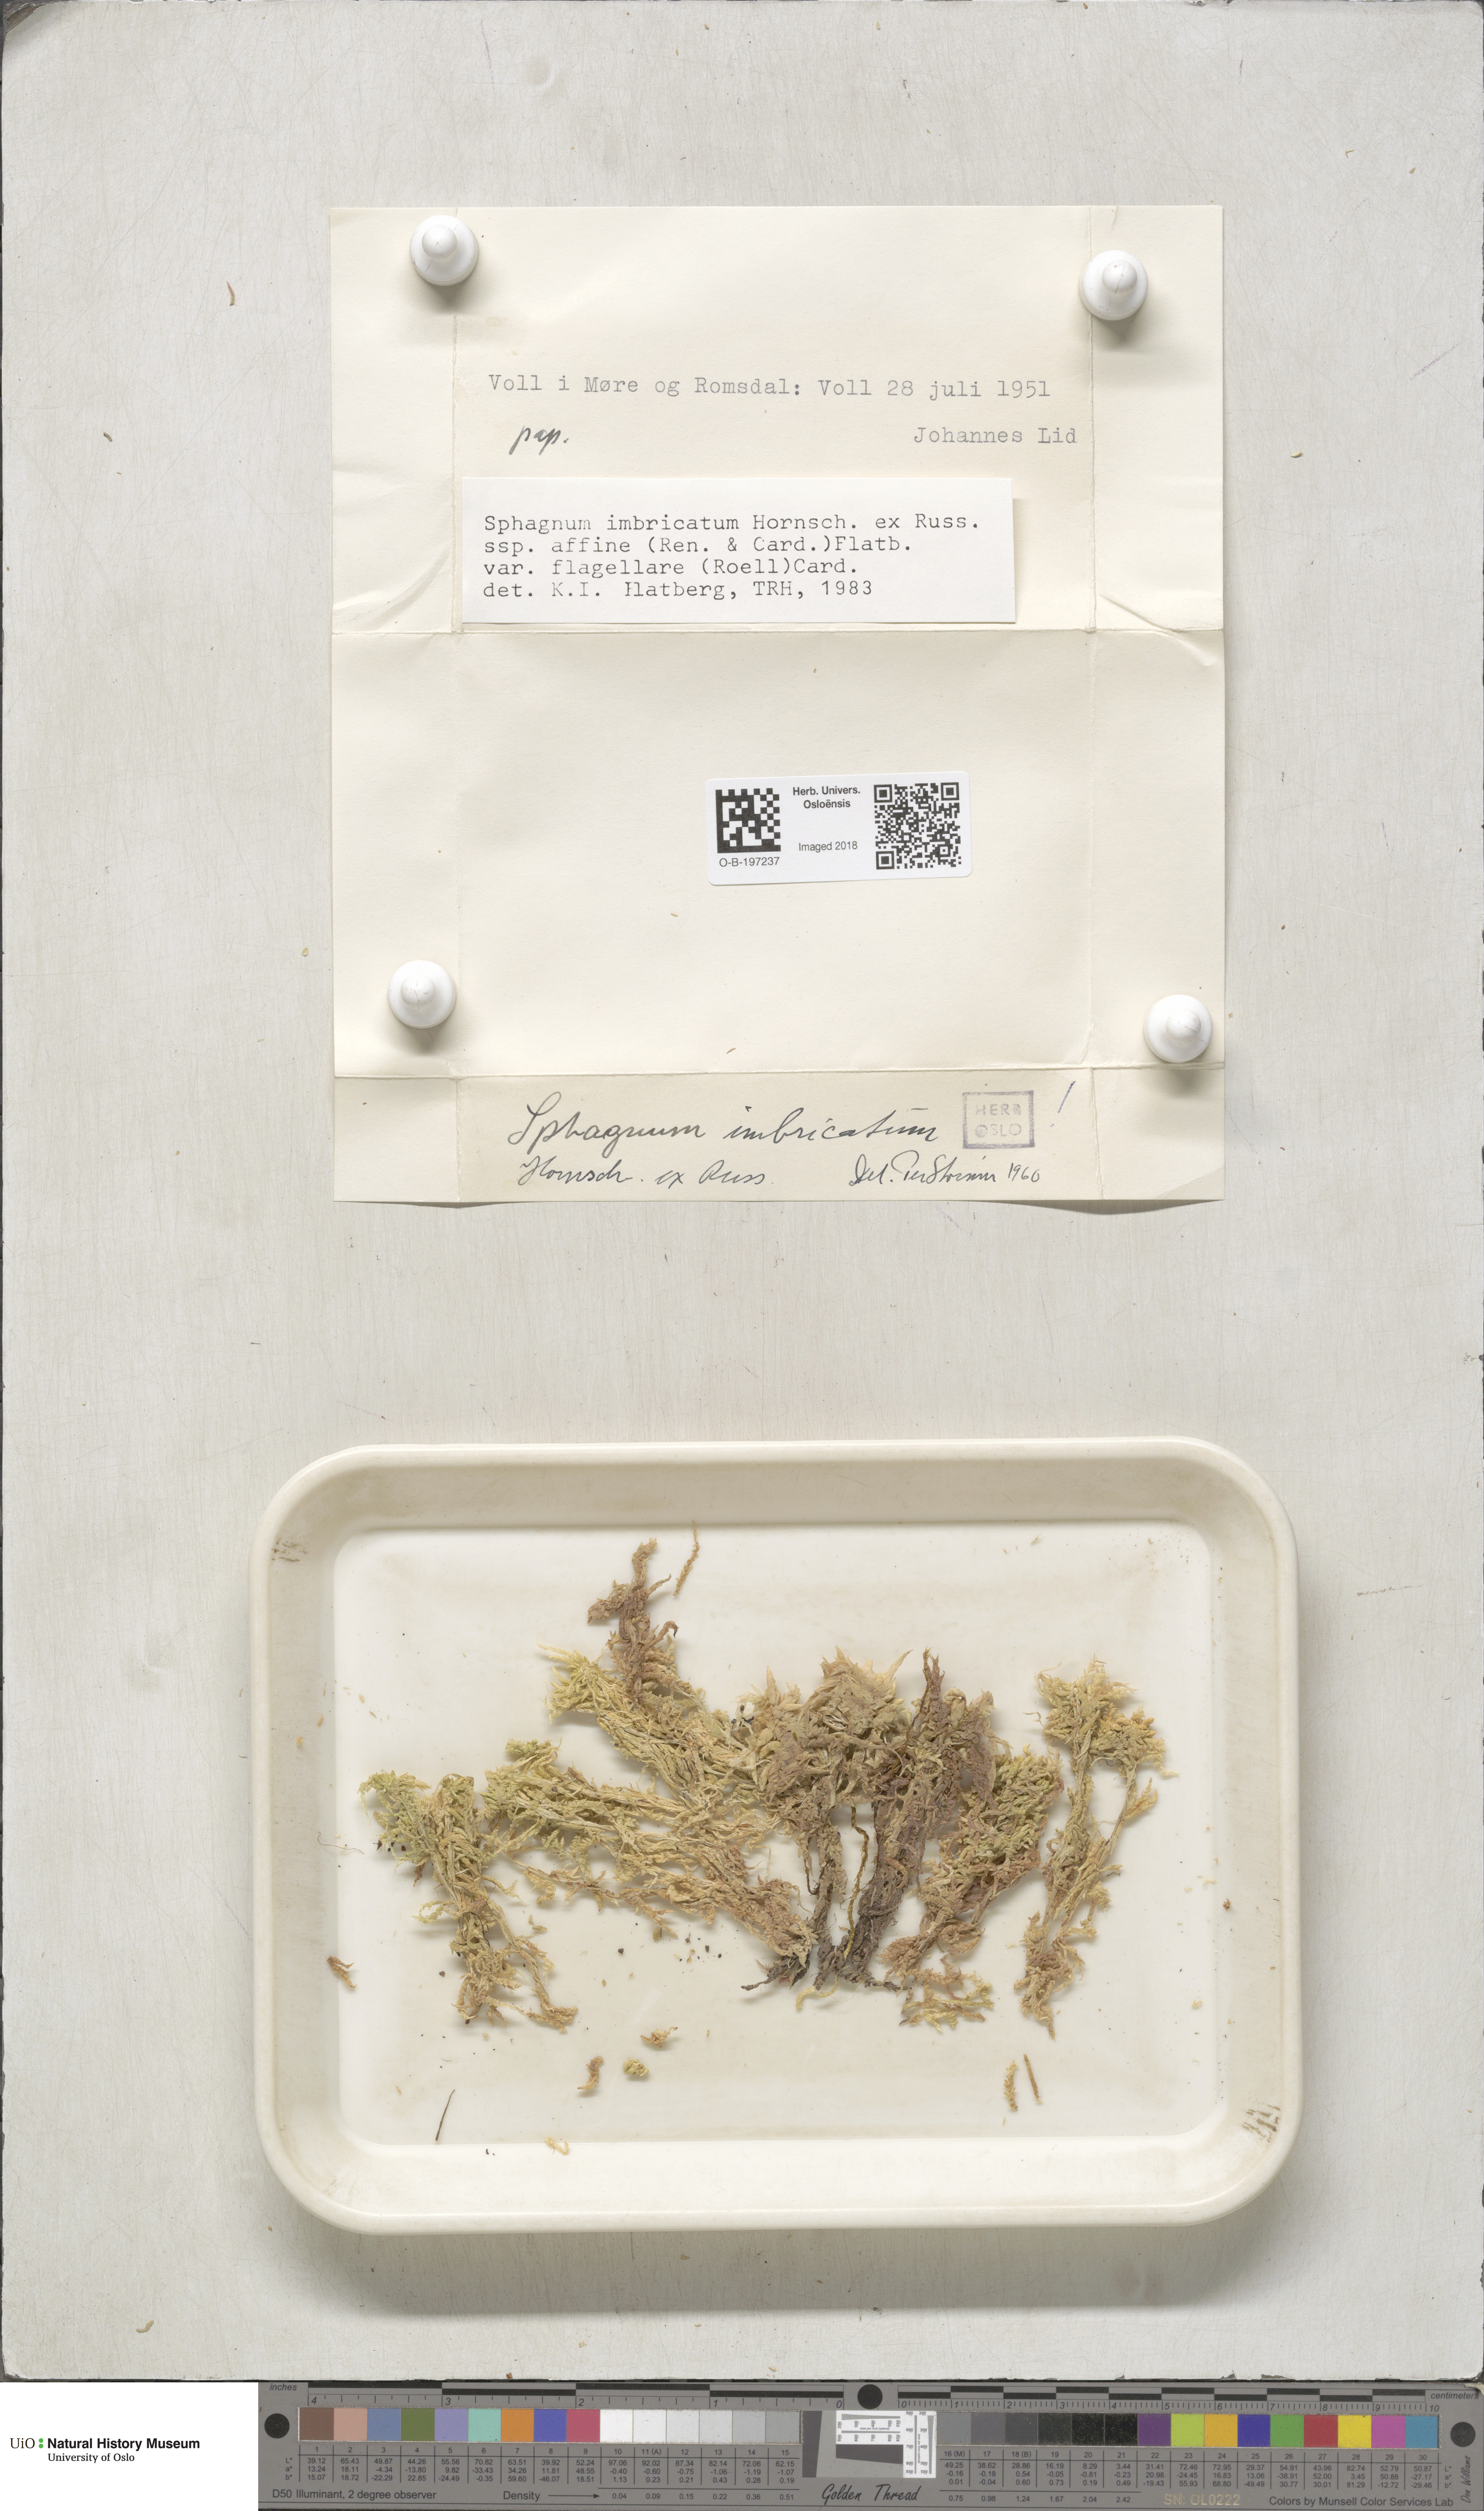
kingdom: Plantae
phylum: Bryophyta
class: Sphagnopsida
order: Sphagnales
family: Sphagnaceae
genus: Sphagnum
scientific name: Sphagnum affine
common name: Imbricate peat moss
